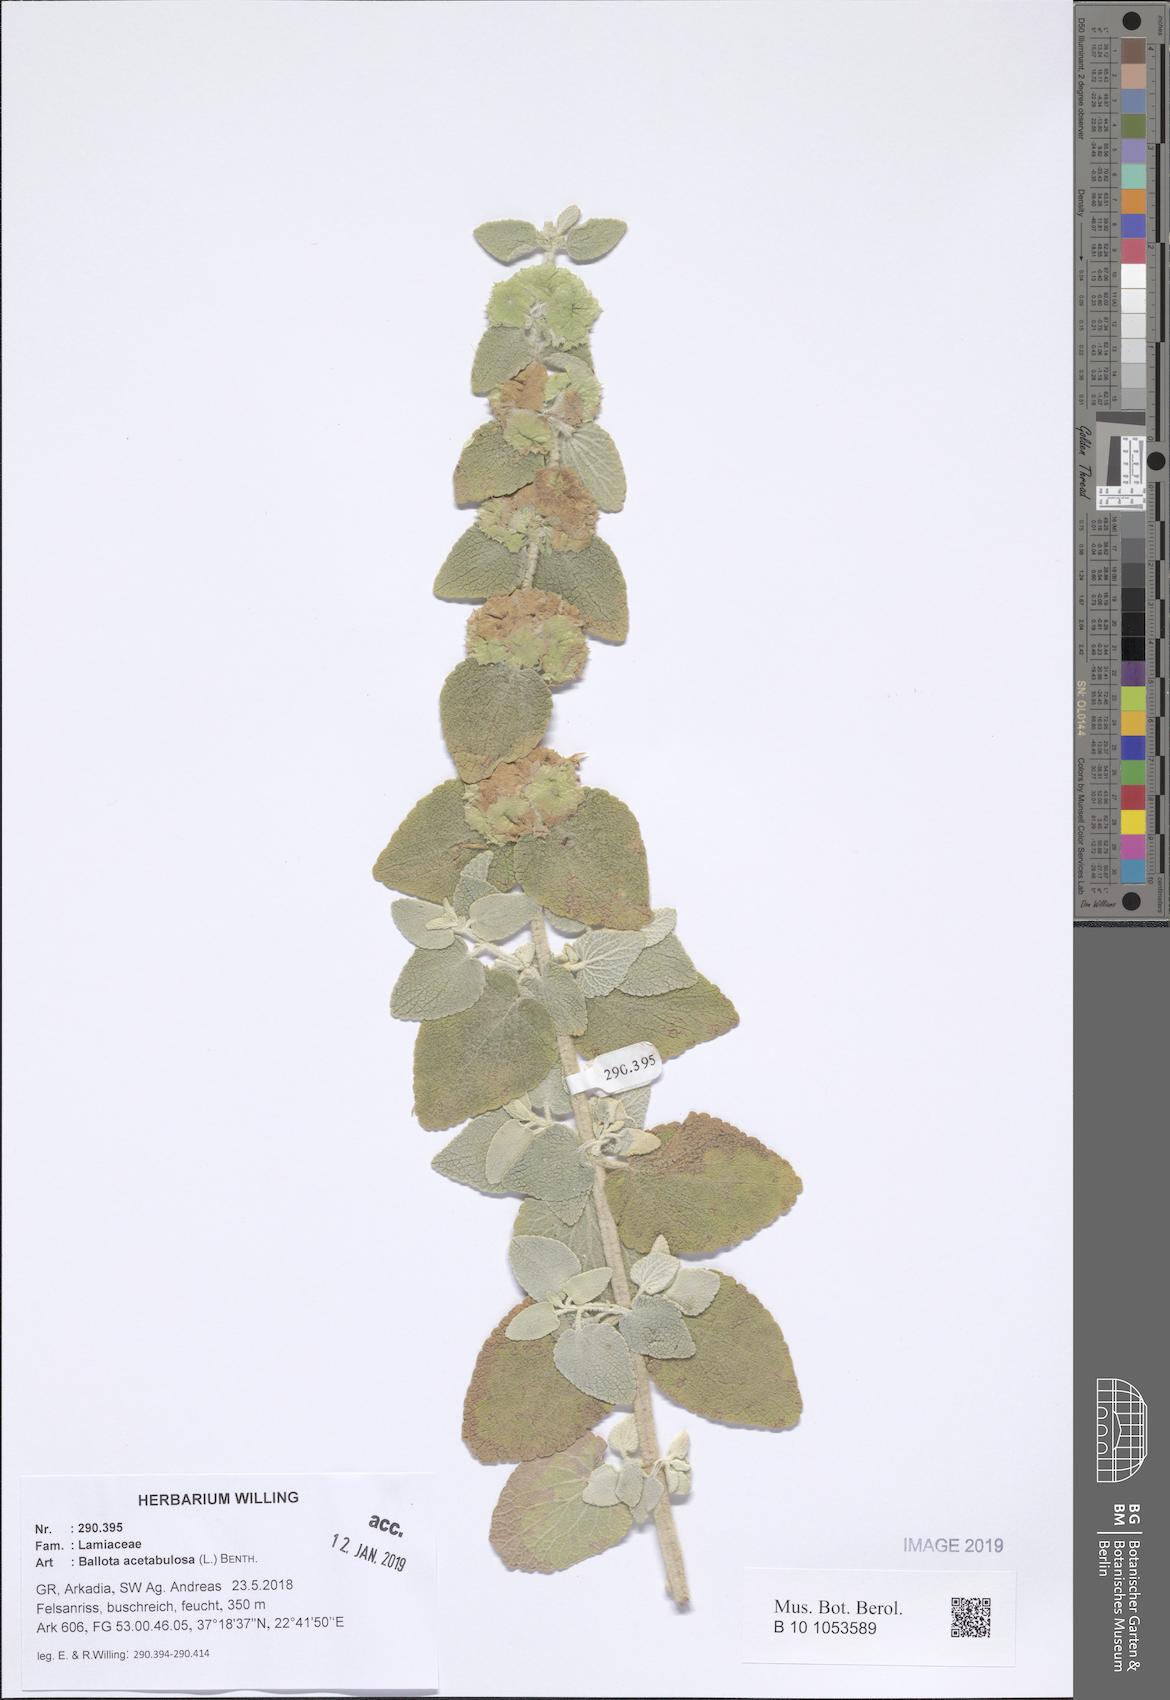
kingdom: Plantae
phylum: Tracheophyta
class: Magnoliopsida
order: Lamiales
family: Lamiaceae
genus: Pseudodictamnus
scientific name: Pseudodictamnus acetabulosus
